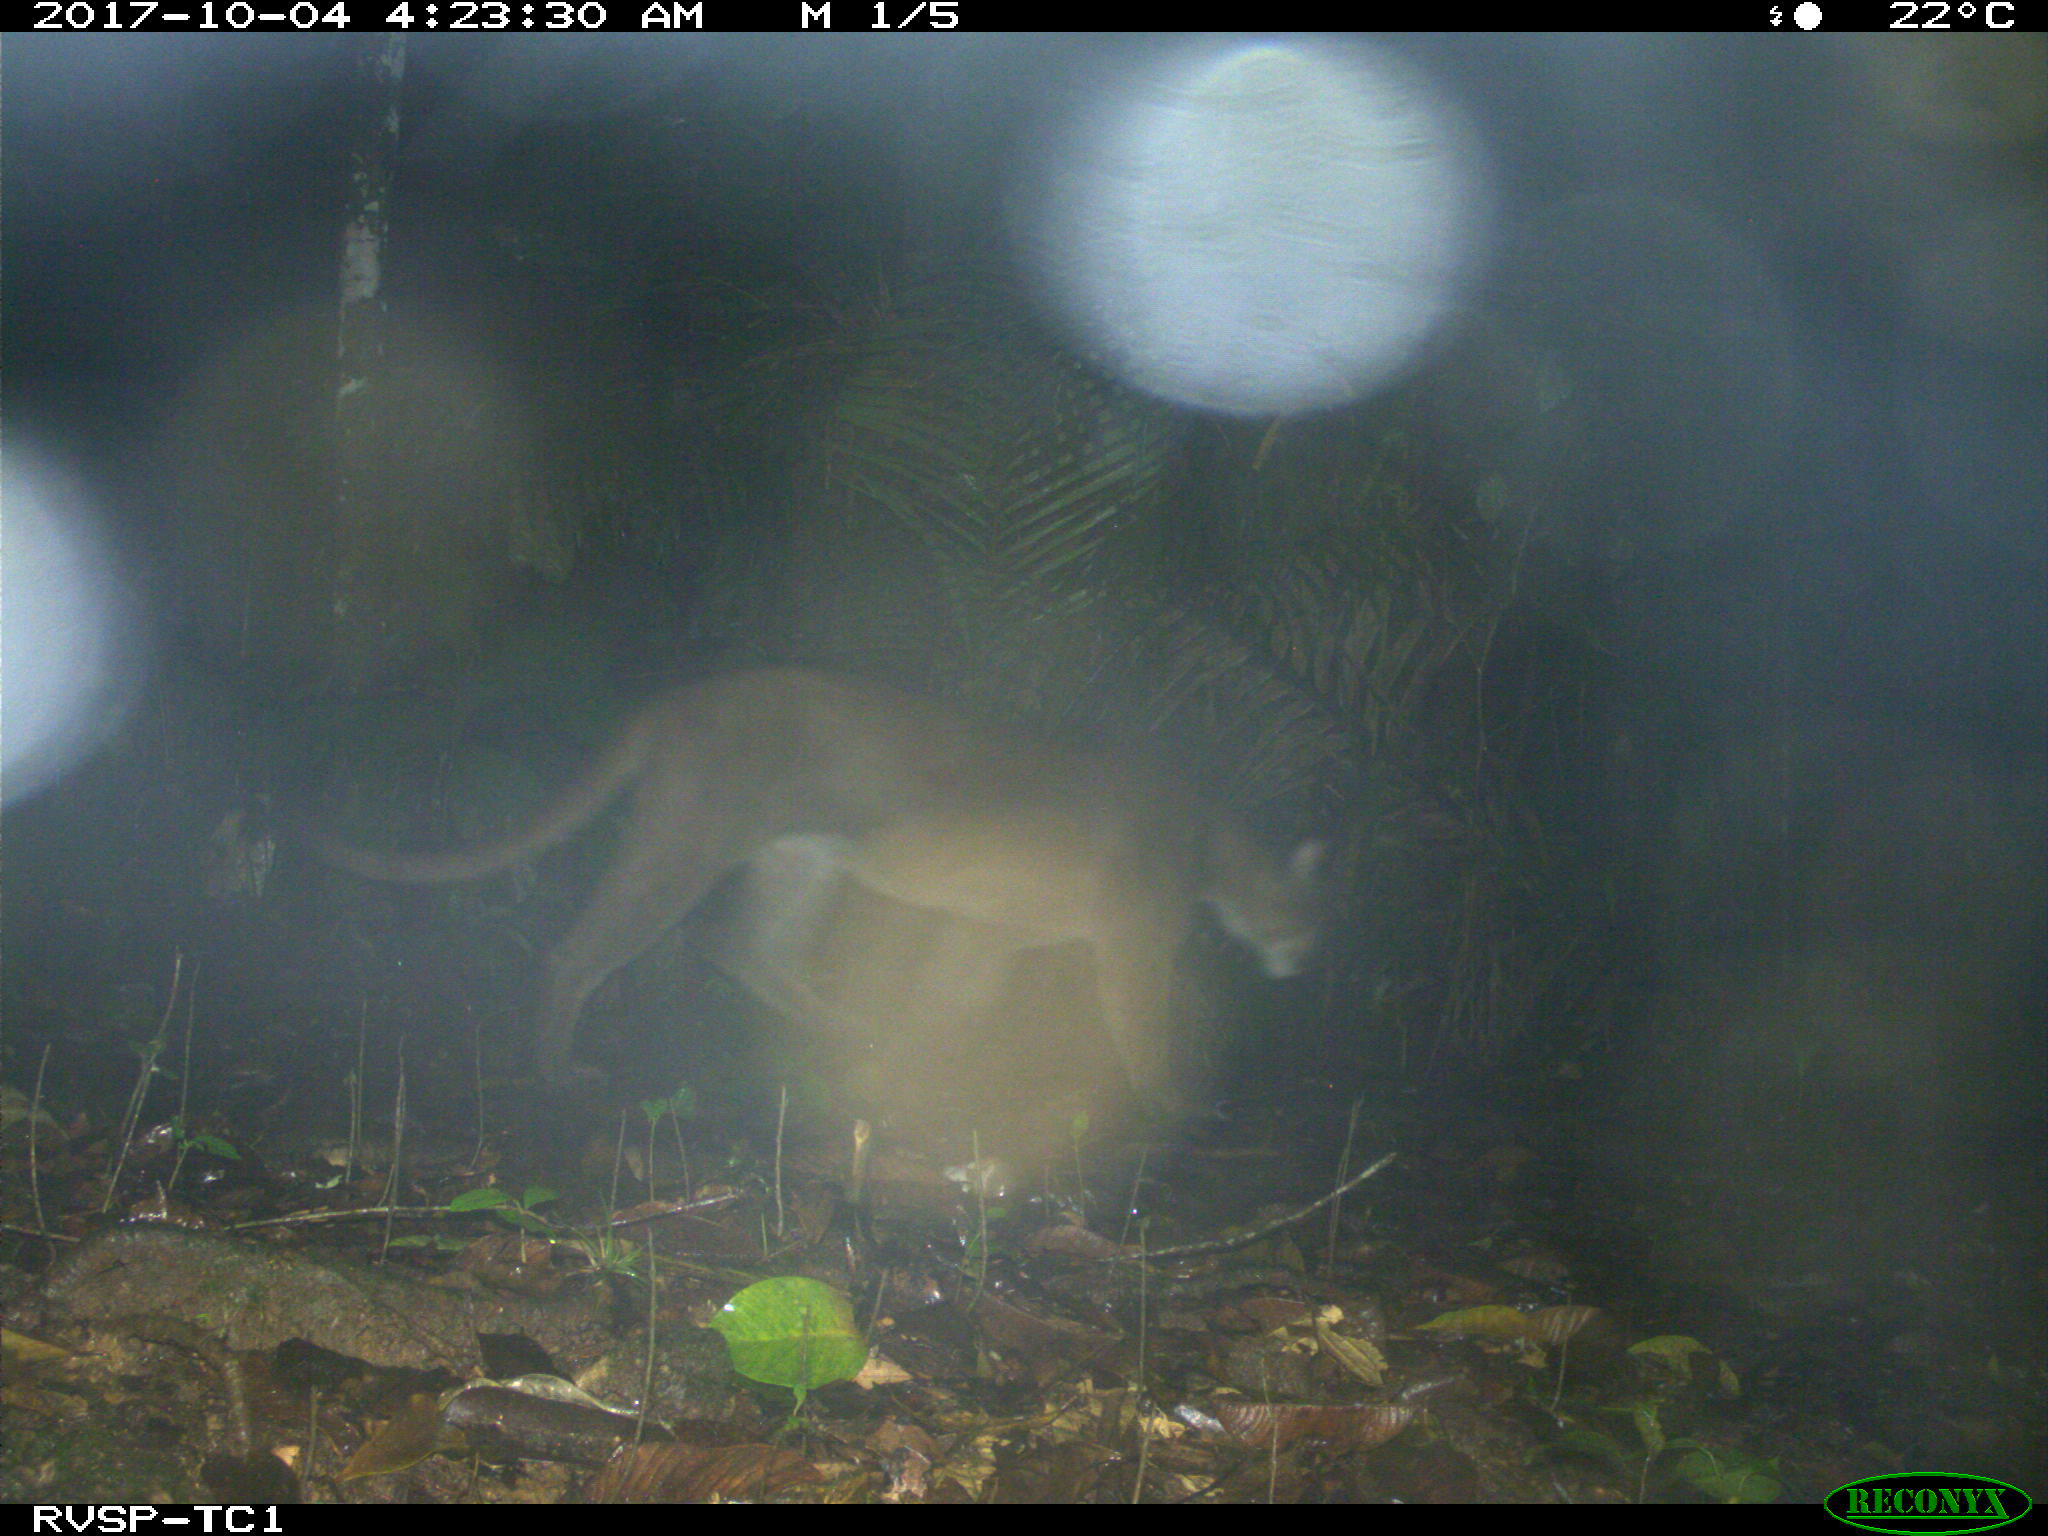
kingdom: Animalia
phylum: Chordata
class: Mammalia
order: Carnivora
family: Felidae
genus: Puma
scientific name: Puma concolor
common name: Puma
